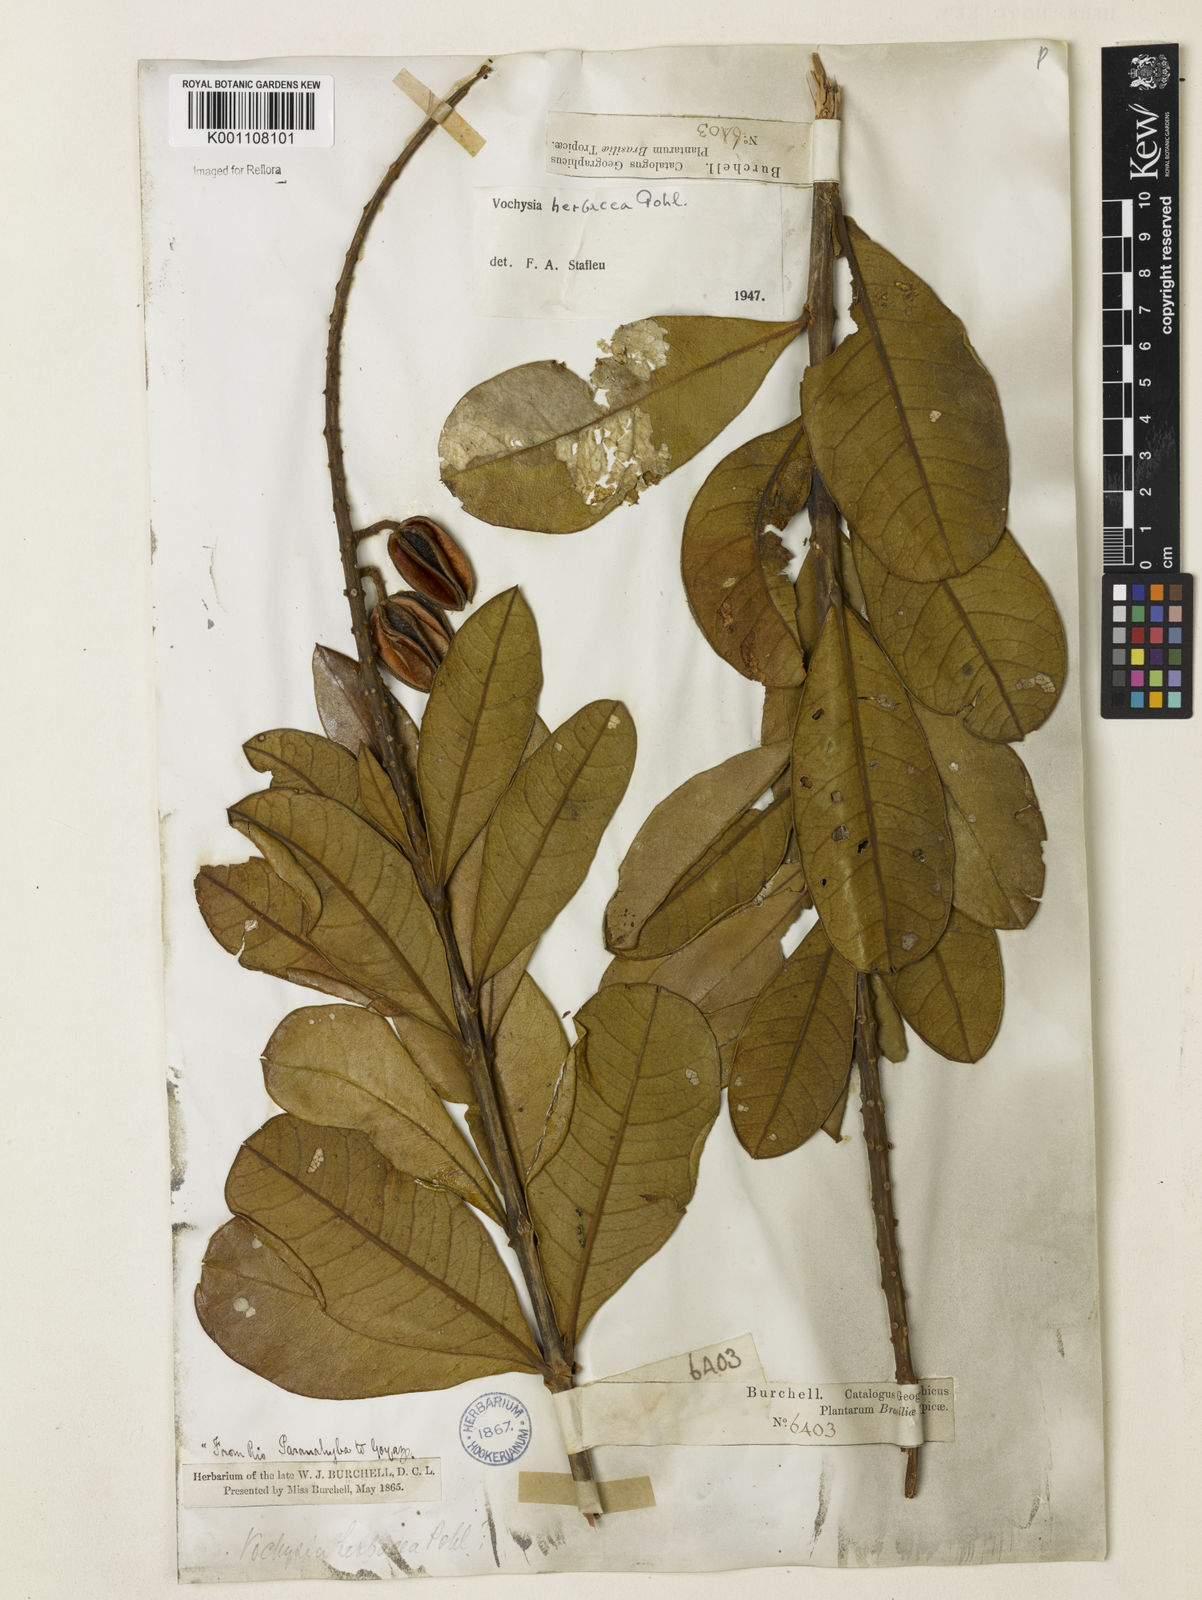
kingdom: Plantae
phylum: Tracheophyta
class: Magnoliopsida
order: Myrtales
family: Vochysiaceae
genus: Vochysia
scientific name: Vochysia herbacea
